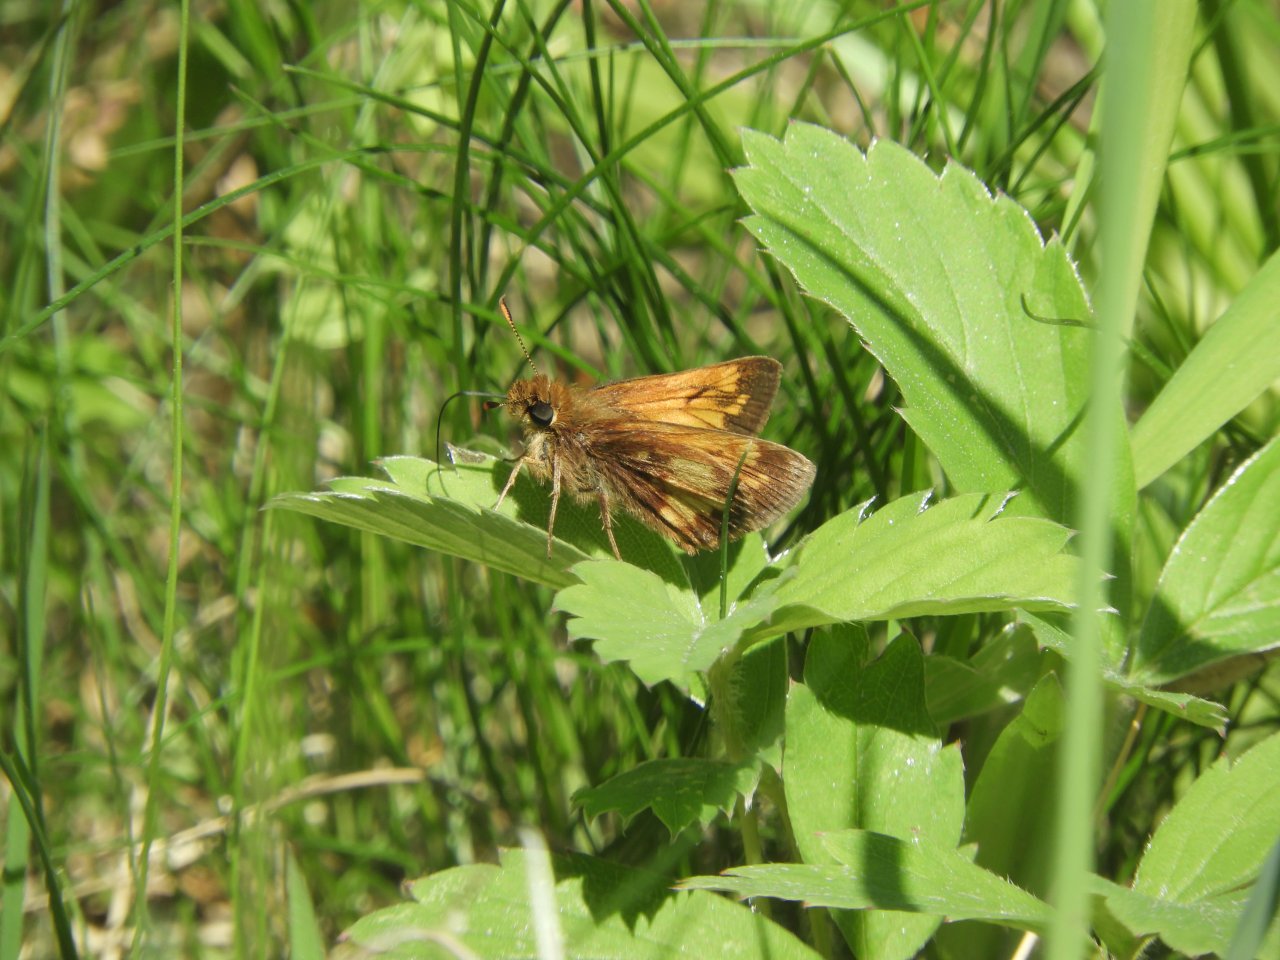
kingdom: Animalia
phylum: Arthropoda
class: Insecta
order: Lepidoptera
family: Hesperiidae
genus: Polites
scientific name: Polites coras
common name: Peck's Skipper
